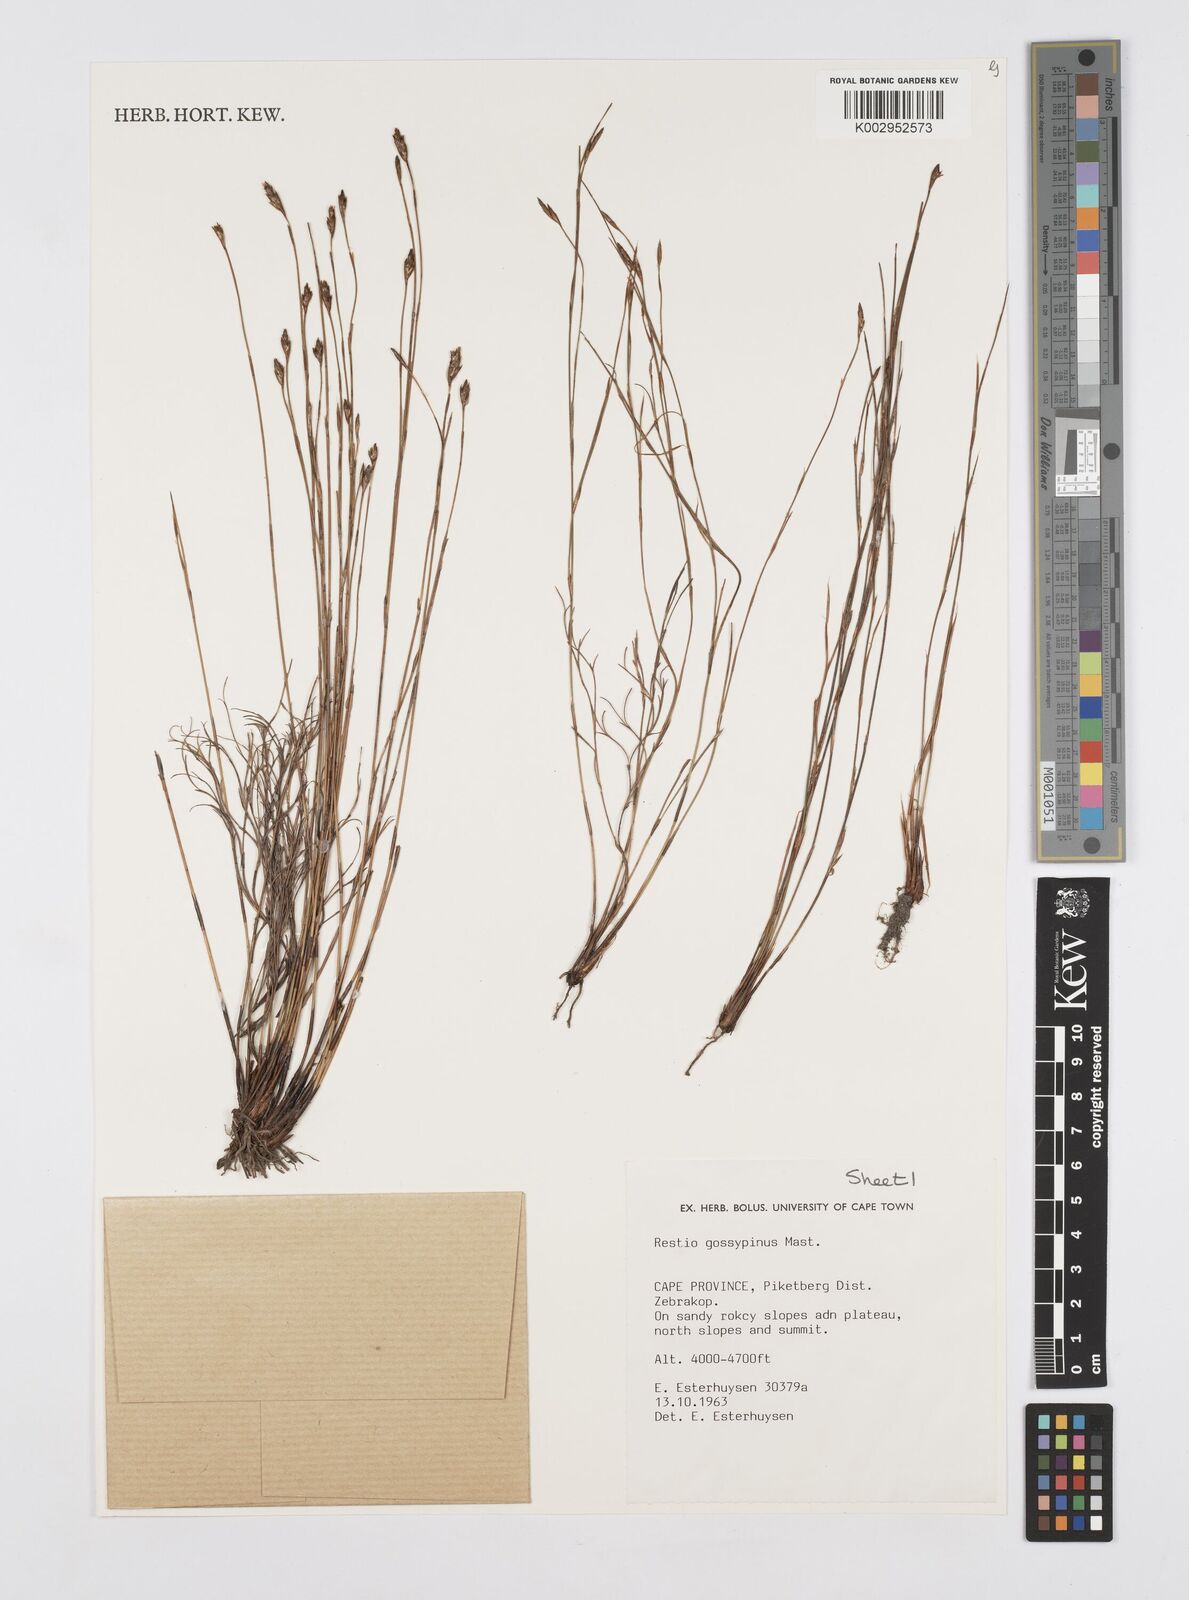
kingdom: Plantae
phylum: Tracheophyta
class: Liliopsida
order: Poales
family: Restionaceae
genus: Restio
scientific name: Restio gossypinus
